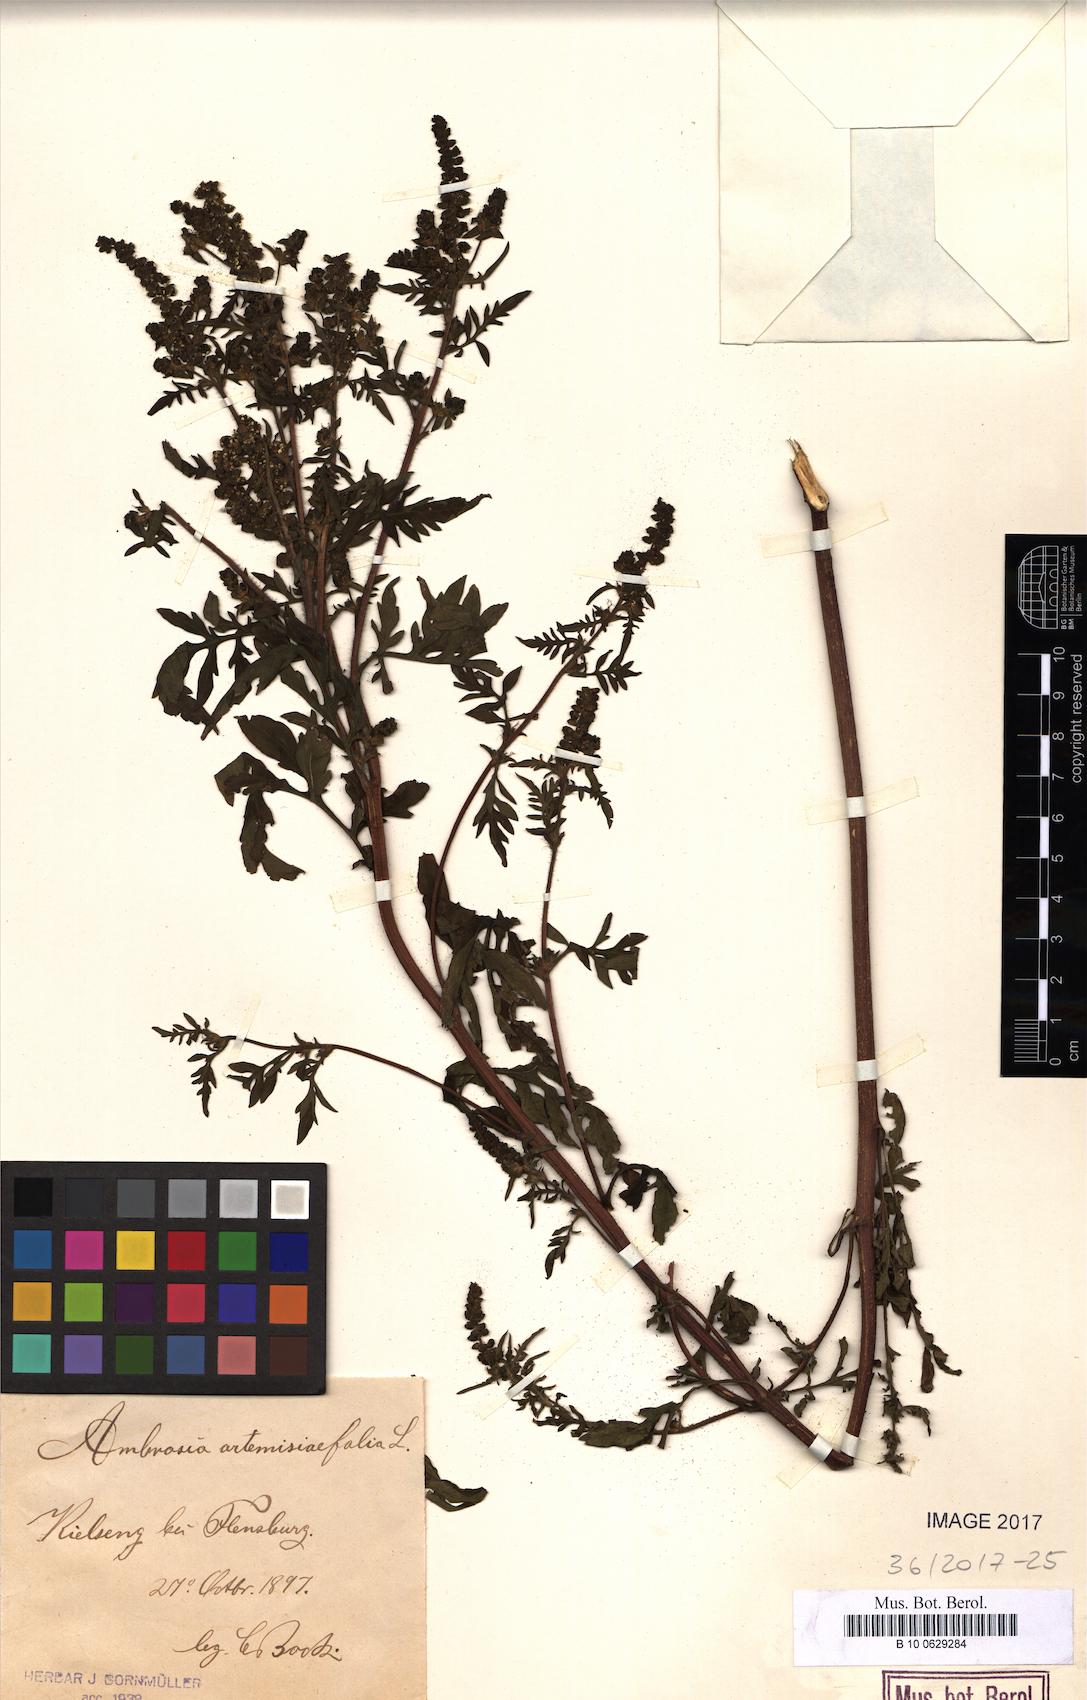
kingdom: Plantae
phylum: Tracheophyta
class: Magnoliopsida
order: Asterales
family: Asteraceae
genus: Ambrosia
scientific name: Ambrosia artemisiifolia
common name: Annual ragweed
